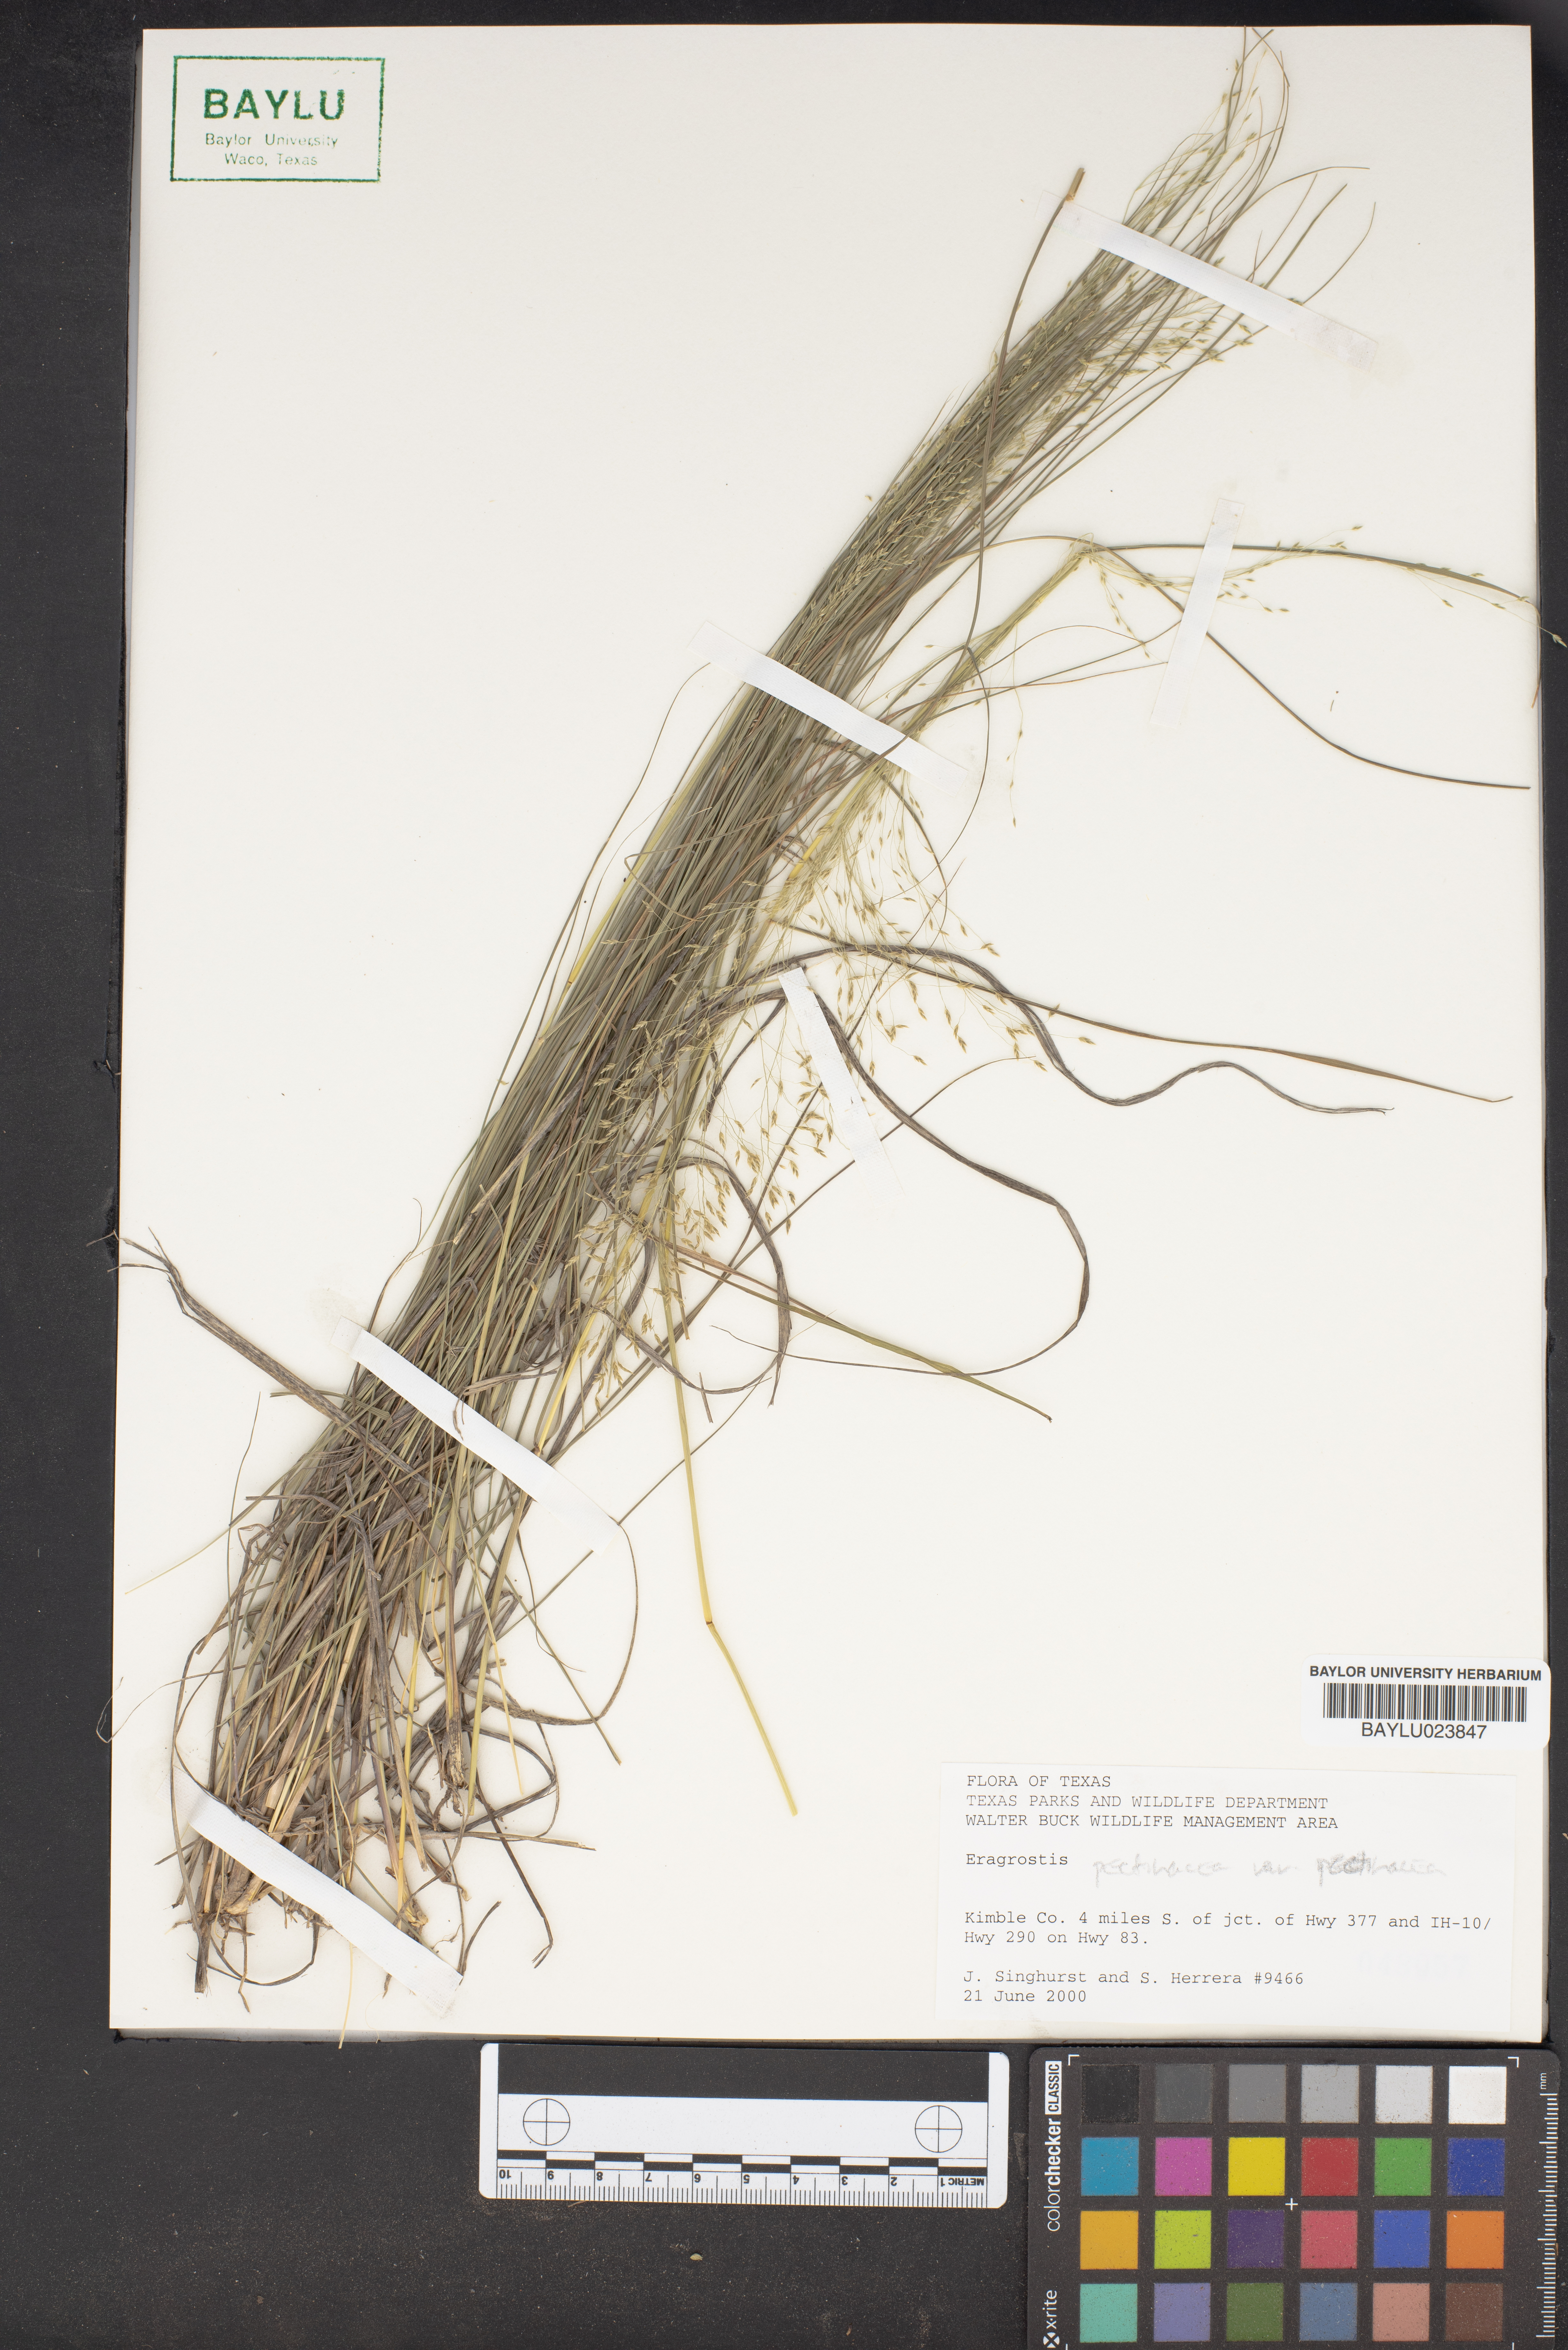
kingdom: Plantae
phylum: Tracheophyta
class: Liliopsida
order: Poales
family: Poaceae
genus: Eragrostis
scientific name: Eragrostis
